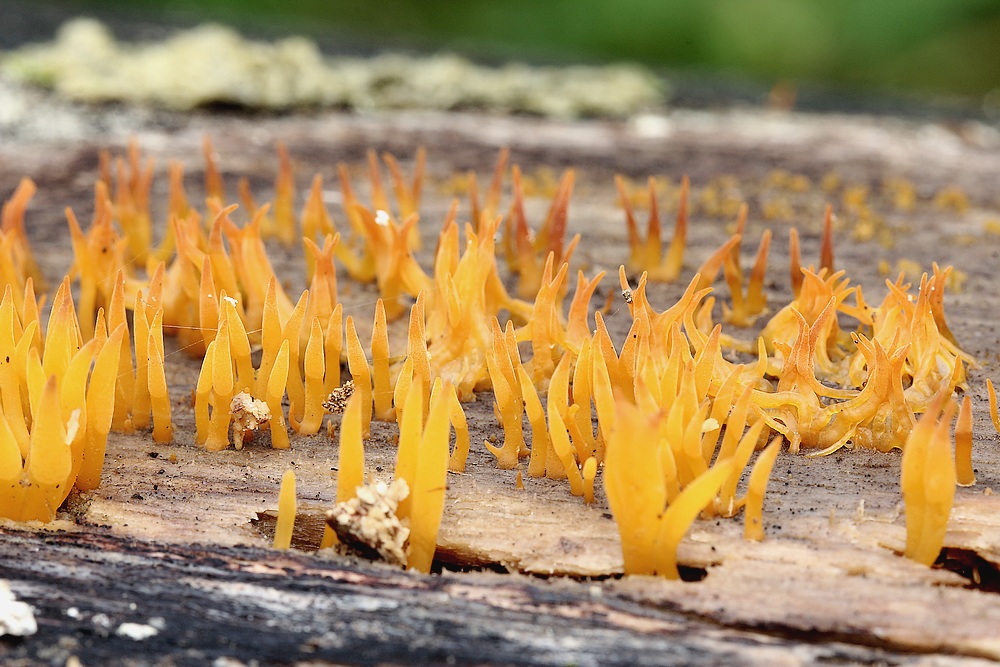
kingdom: Fungi
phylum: Basidiomycota
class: Dacrymycetes
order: Dacrymycetales
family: Dacrymycetaceae
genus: Calocera
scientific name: Calocera cornea
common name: liden guldgaffel
